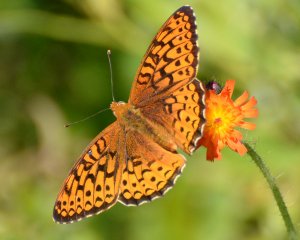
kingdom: Animalia
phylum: Arthropoda
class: Insecta
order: Lepidoptera
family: Nymphalidae
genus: Speyeria
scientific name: Speyeria atlantis
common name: Atlantis Fritillary
